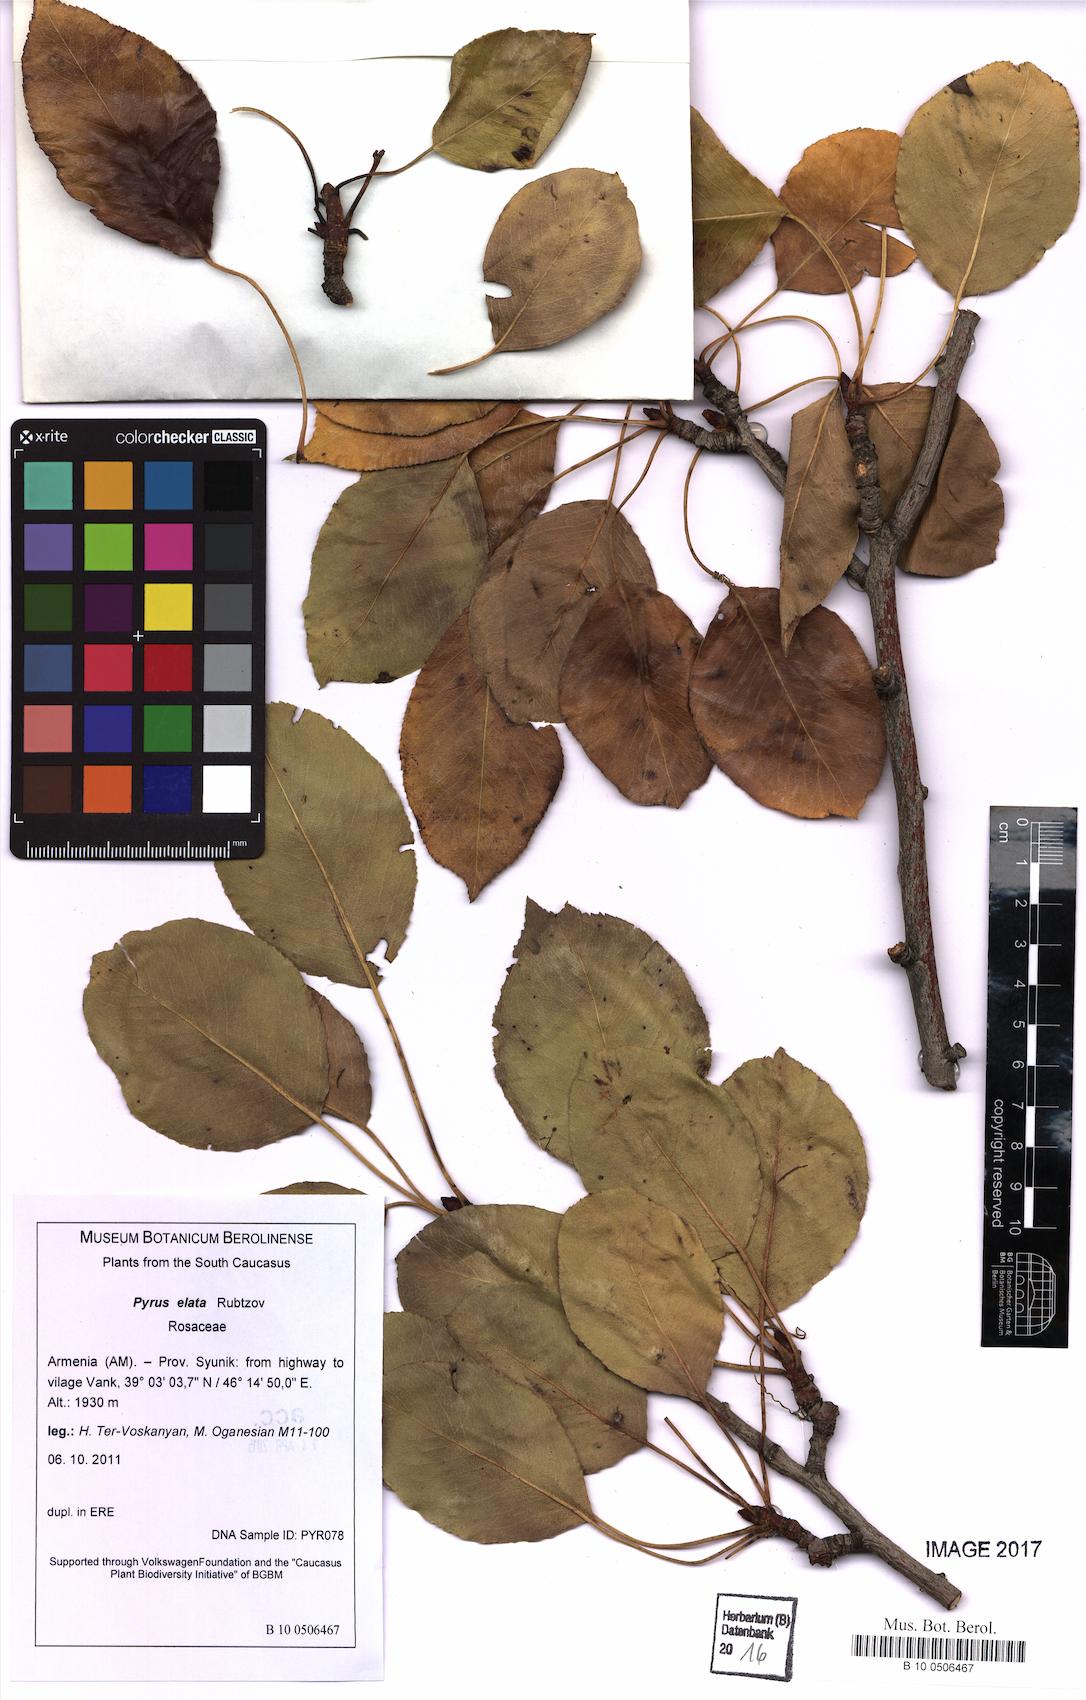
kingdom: Plantae
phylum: Tracheophyta
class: Magnoliopsida
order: Rosales
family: Rosaceae
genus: Pyrus
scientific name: Pyrus communis
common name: Pear
